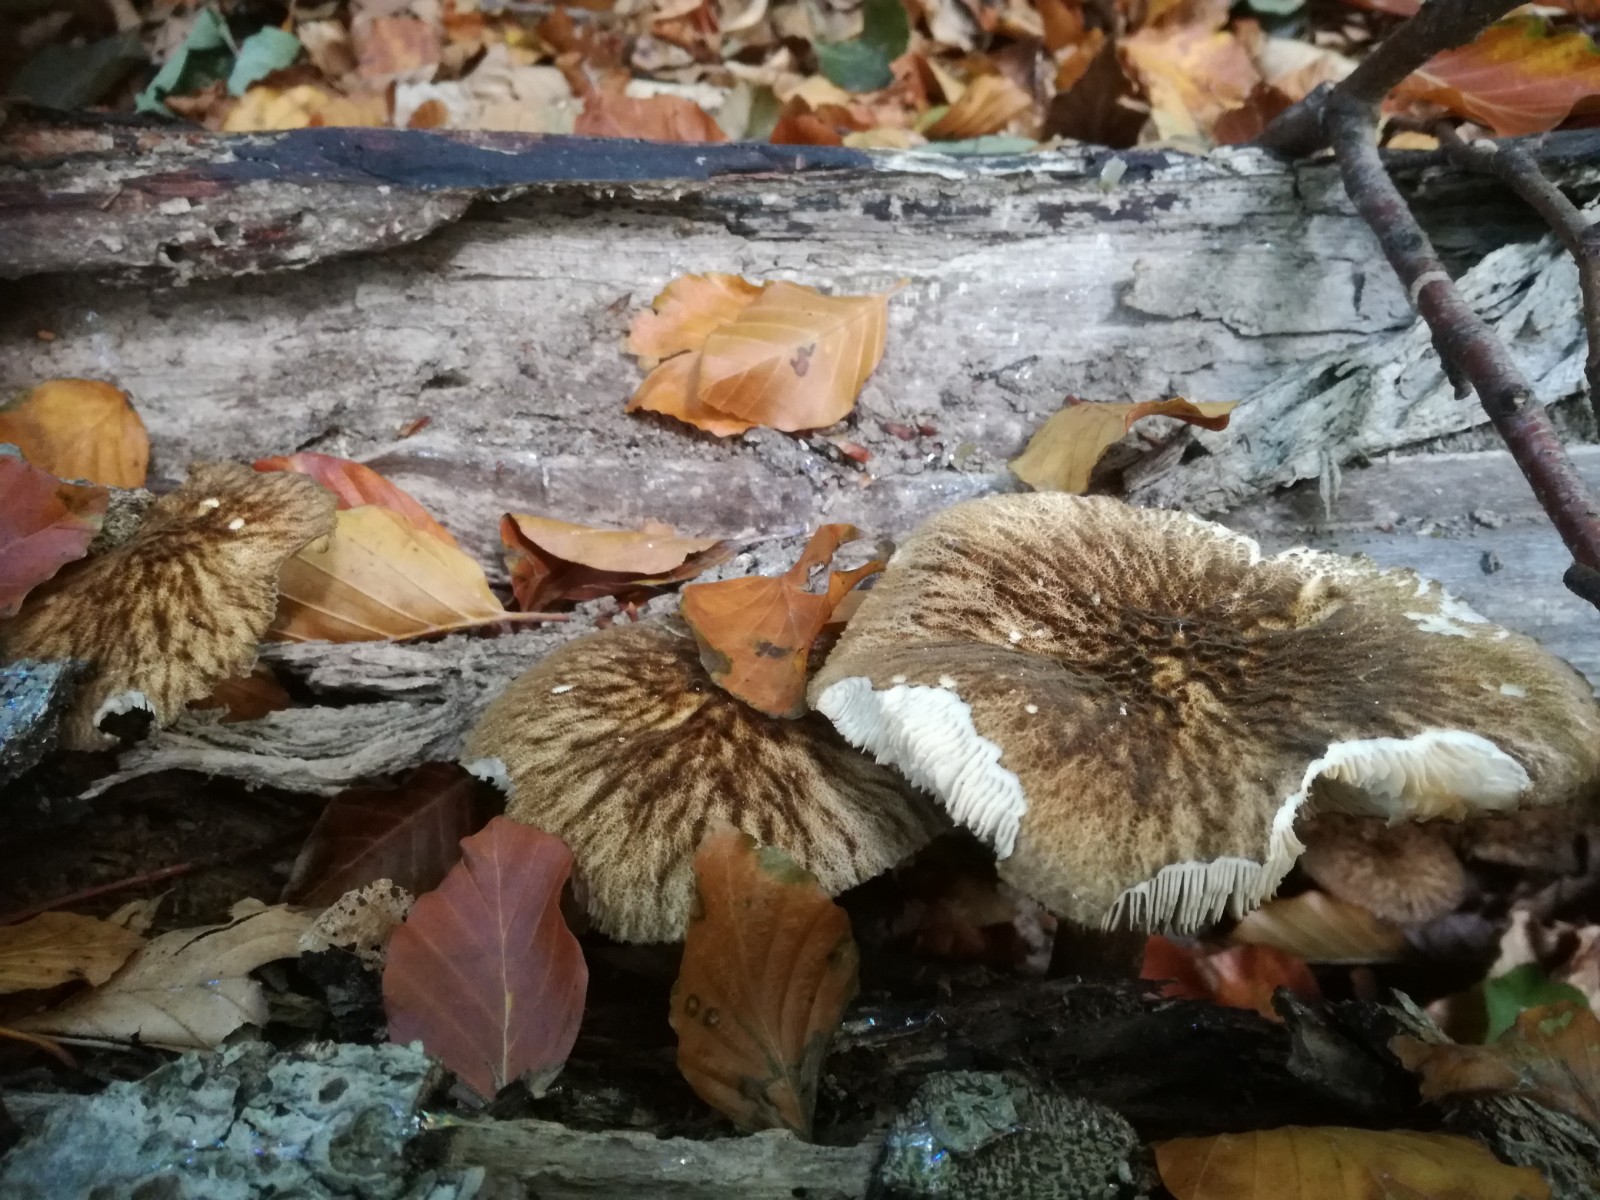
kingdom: Fungi
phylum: Basidiomycota
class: Agaricomycetes
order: Agaricales
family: Pluteaceae
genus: Pluteus
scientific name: Pluteus umbrosus
